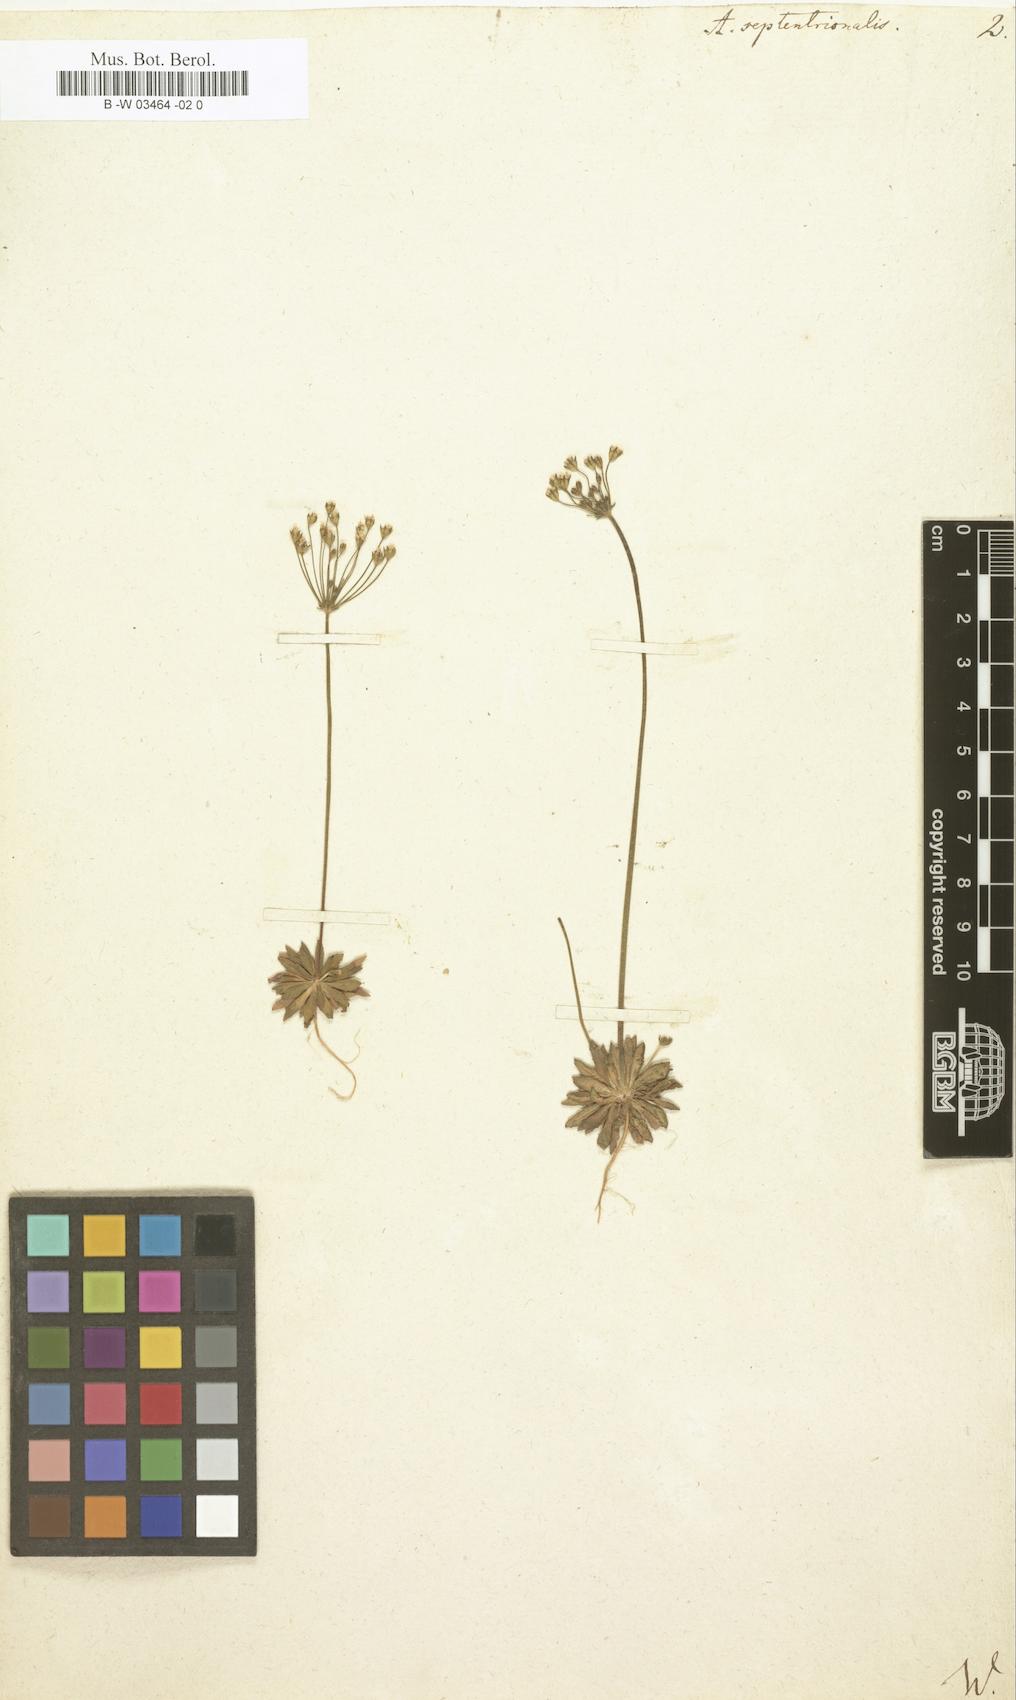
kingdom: Plantae
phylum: Tracheophyta
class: Magnoliopsida
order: Ericales
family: Primulaceae
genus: Androsace
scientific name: Androsace septentrionalis
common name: Hairy northern fairy-candelabra
